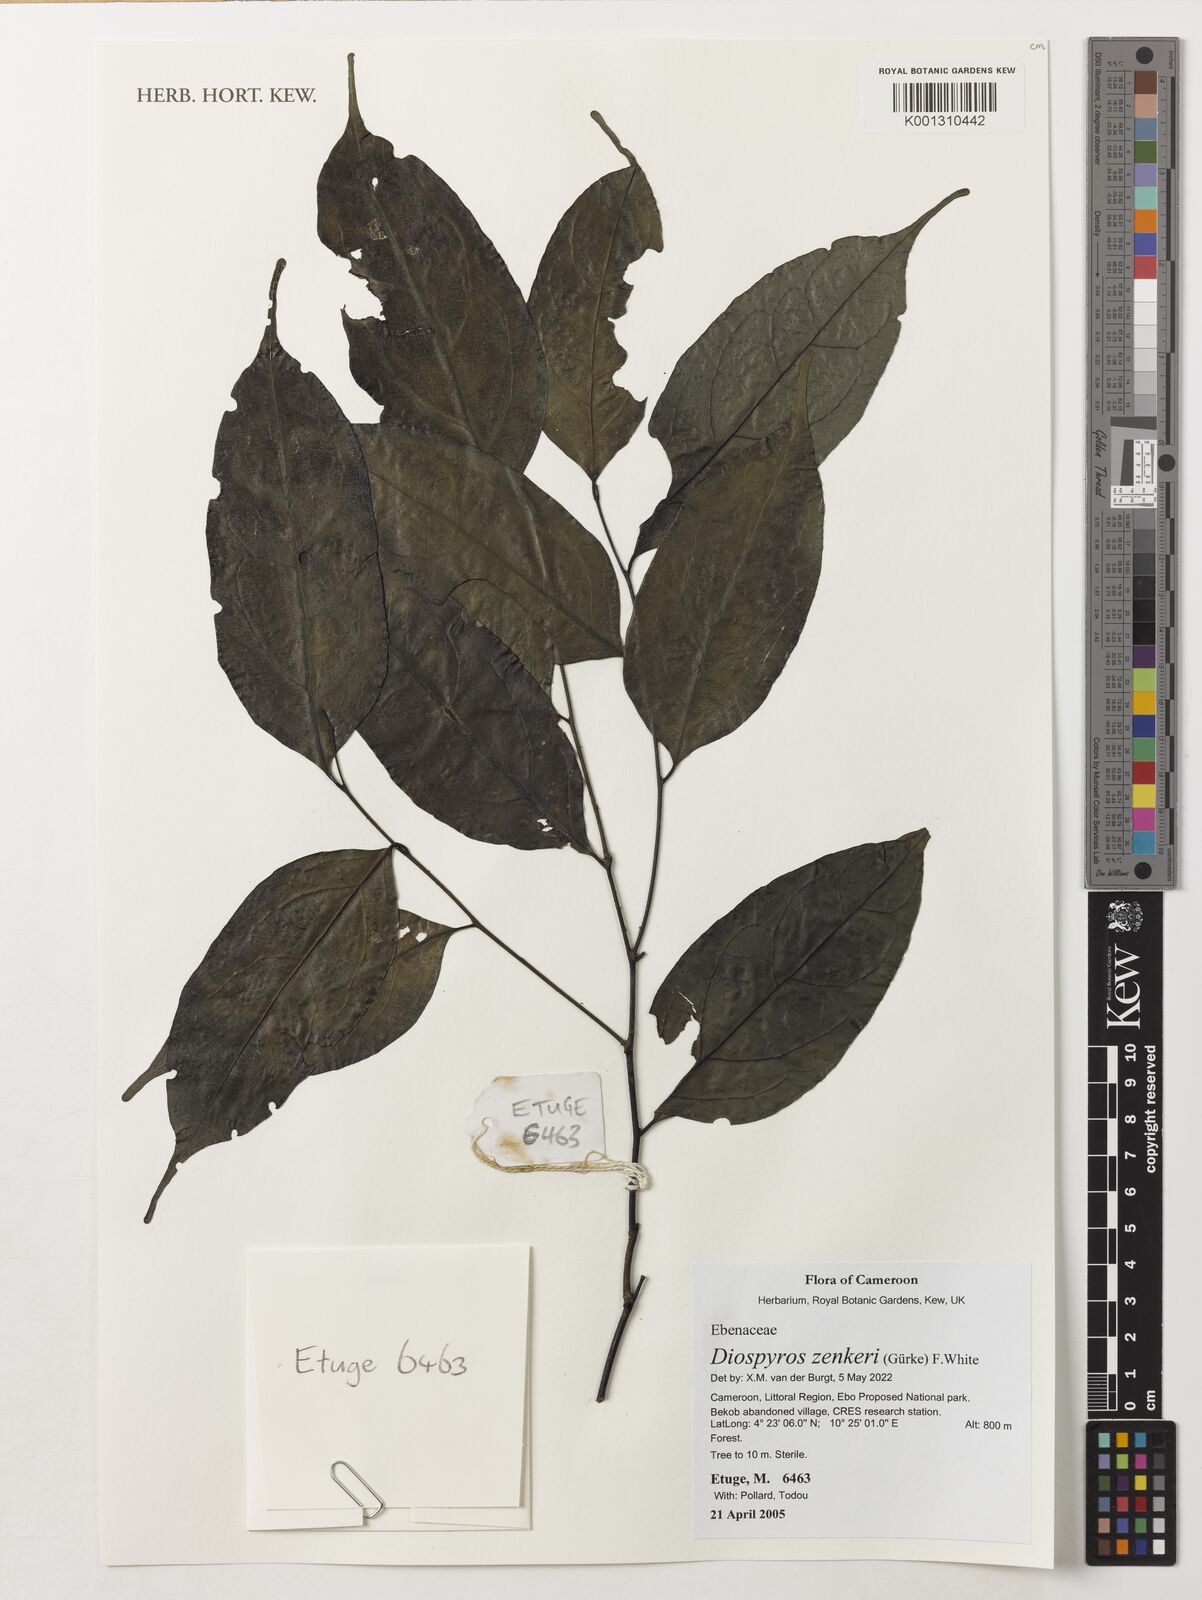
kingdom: Plantae
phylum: Tracheophyta
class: Magnoliopsida
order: Ericales
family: Ebenaceae
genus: Diospyros
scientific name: Diospyros zenkeri
